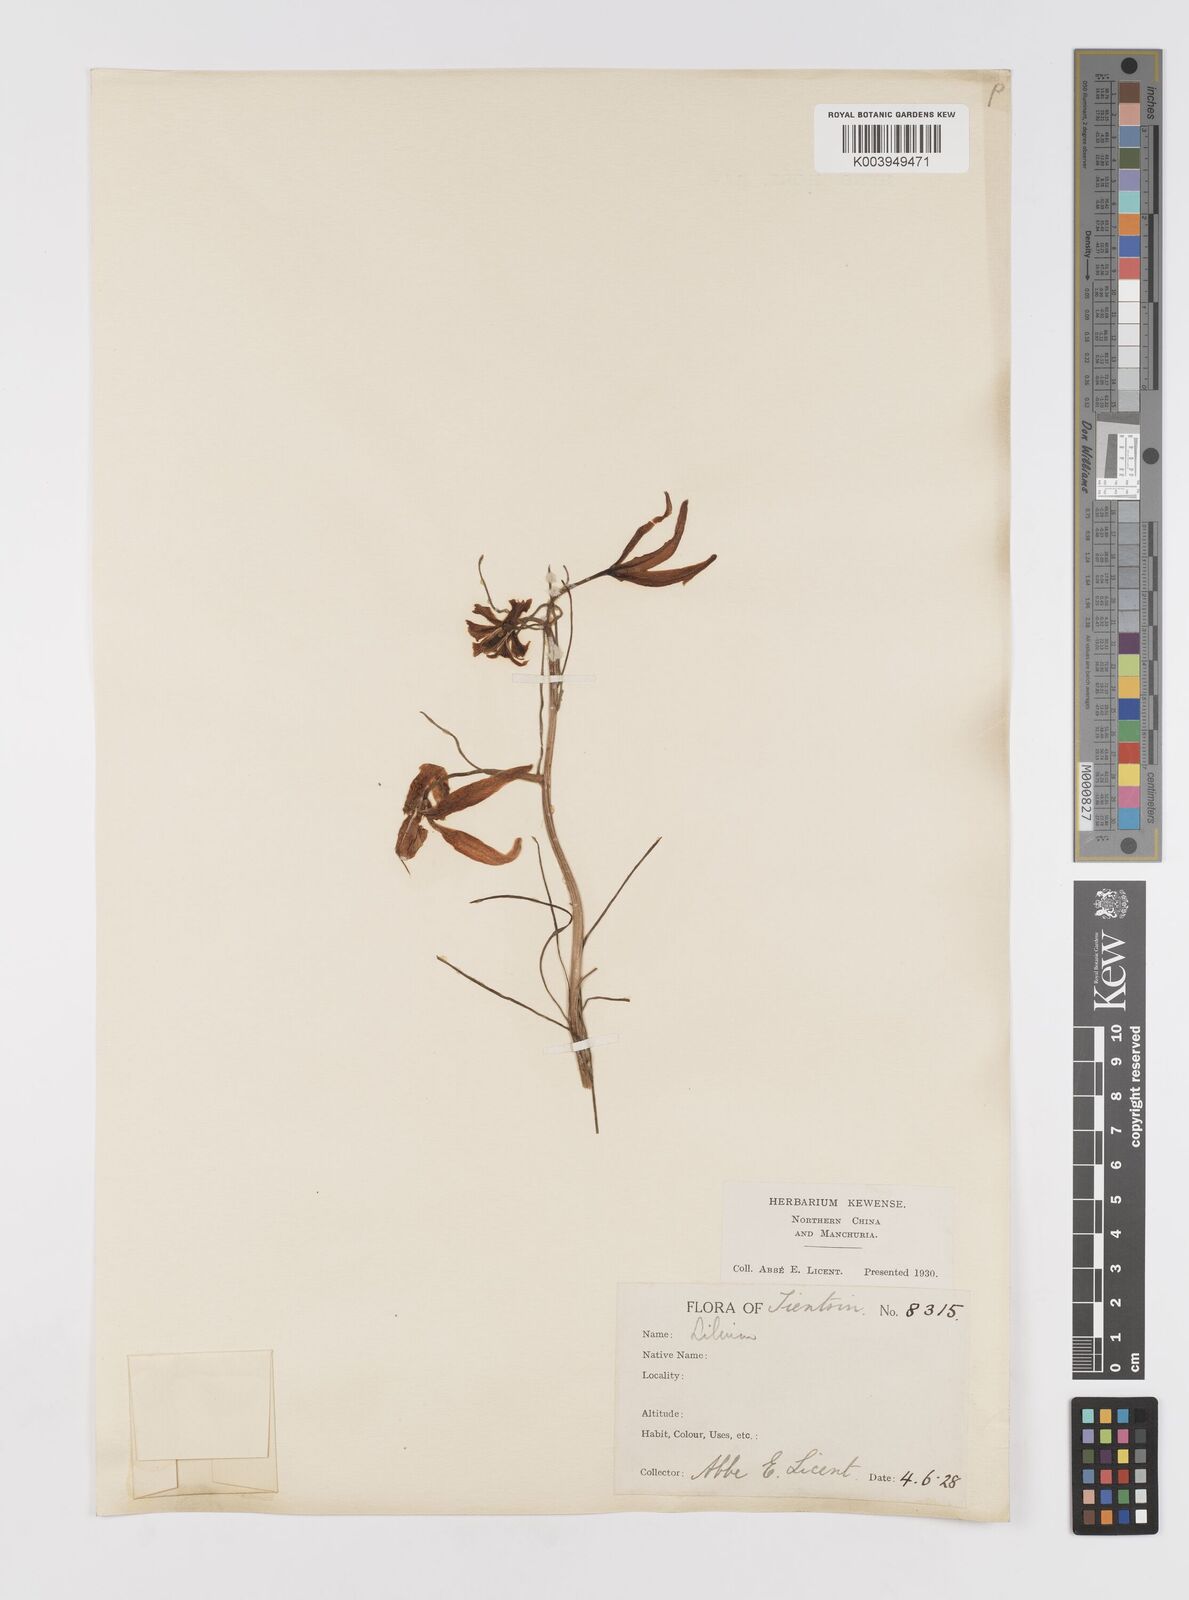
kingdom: Plantae
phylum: Tracheophyta
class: Liliopsida
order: Liliales
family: Liliaceae
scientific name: Liliaceae
